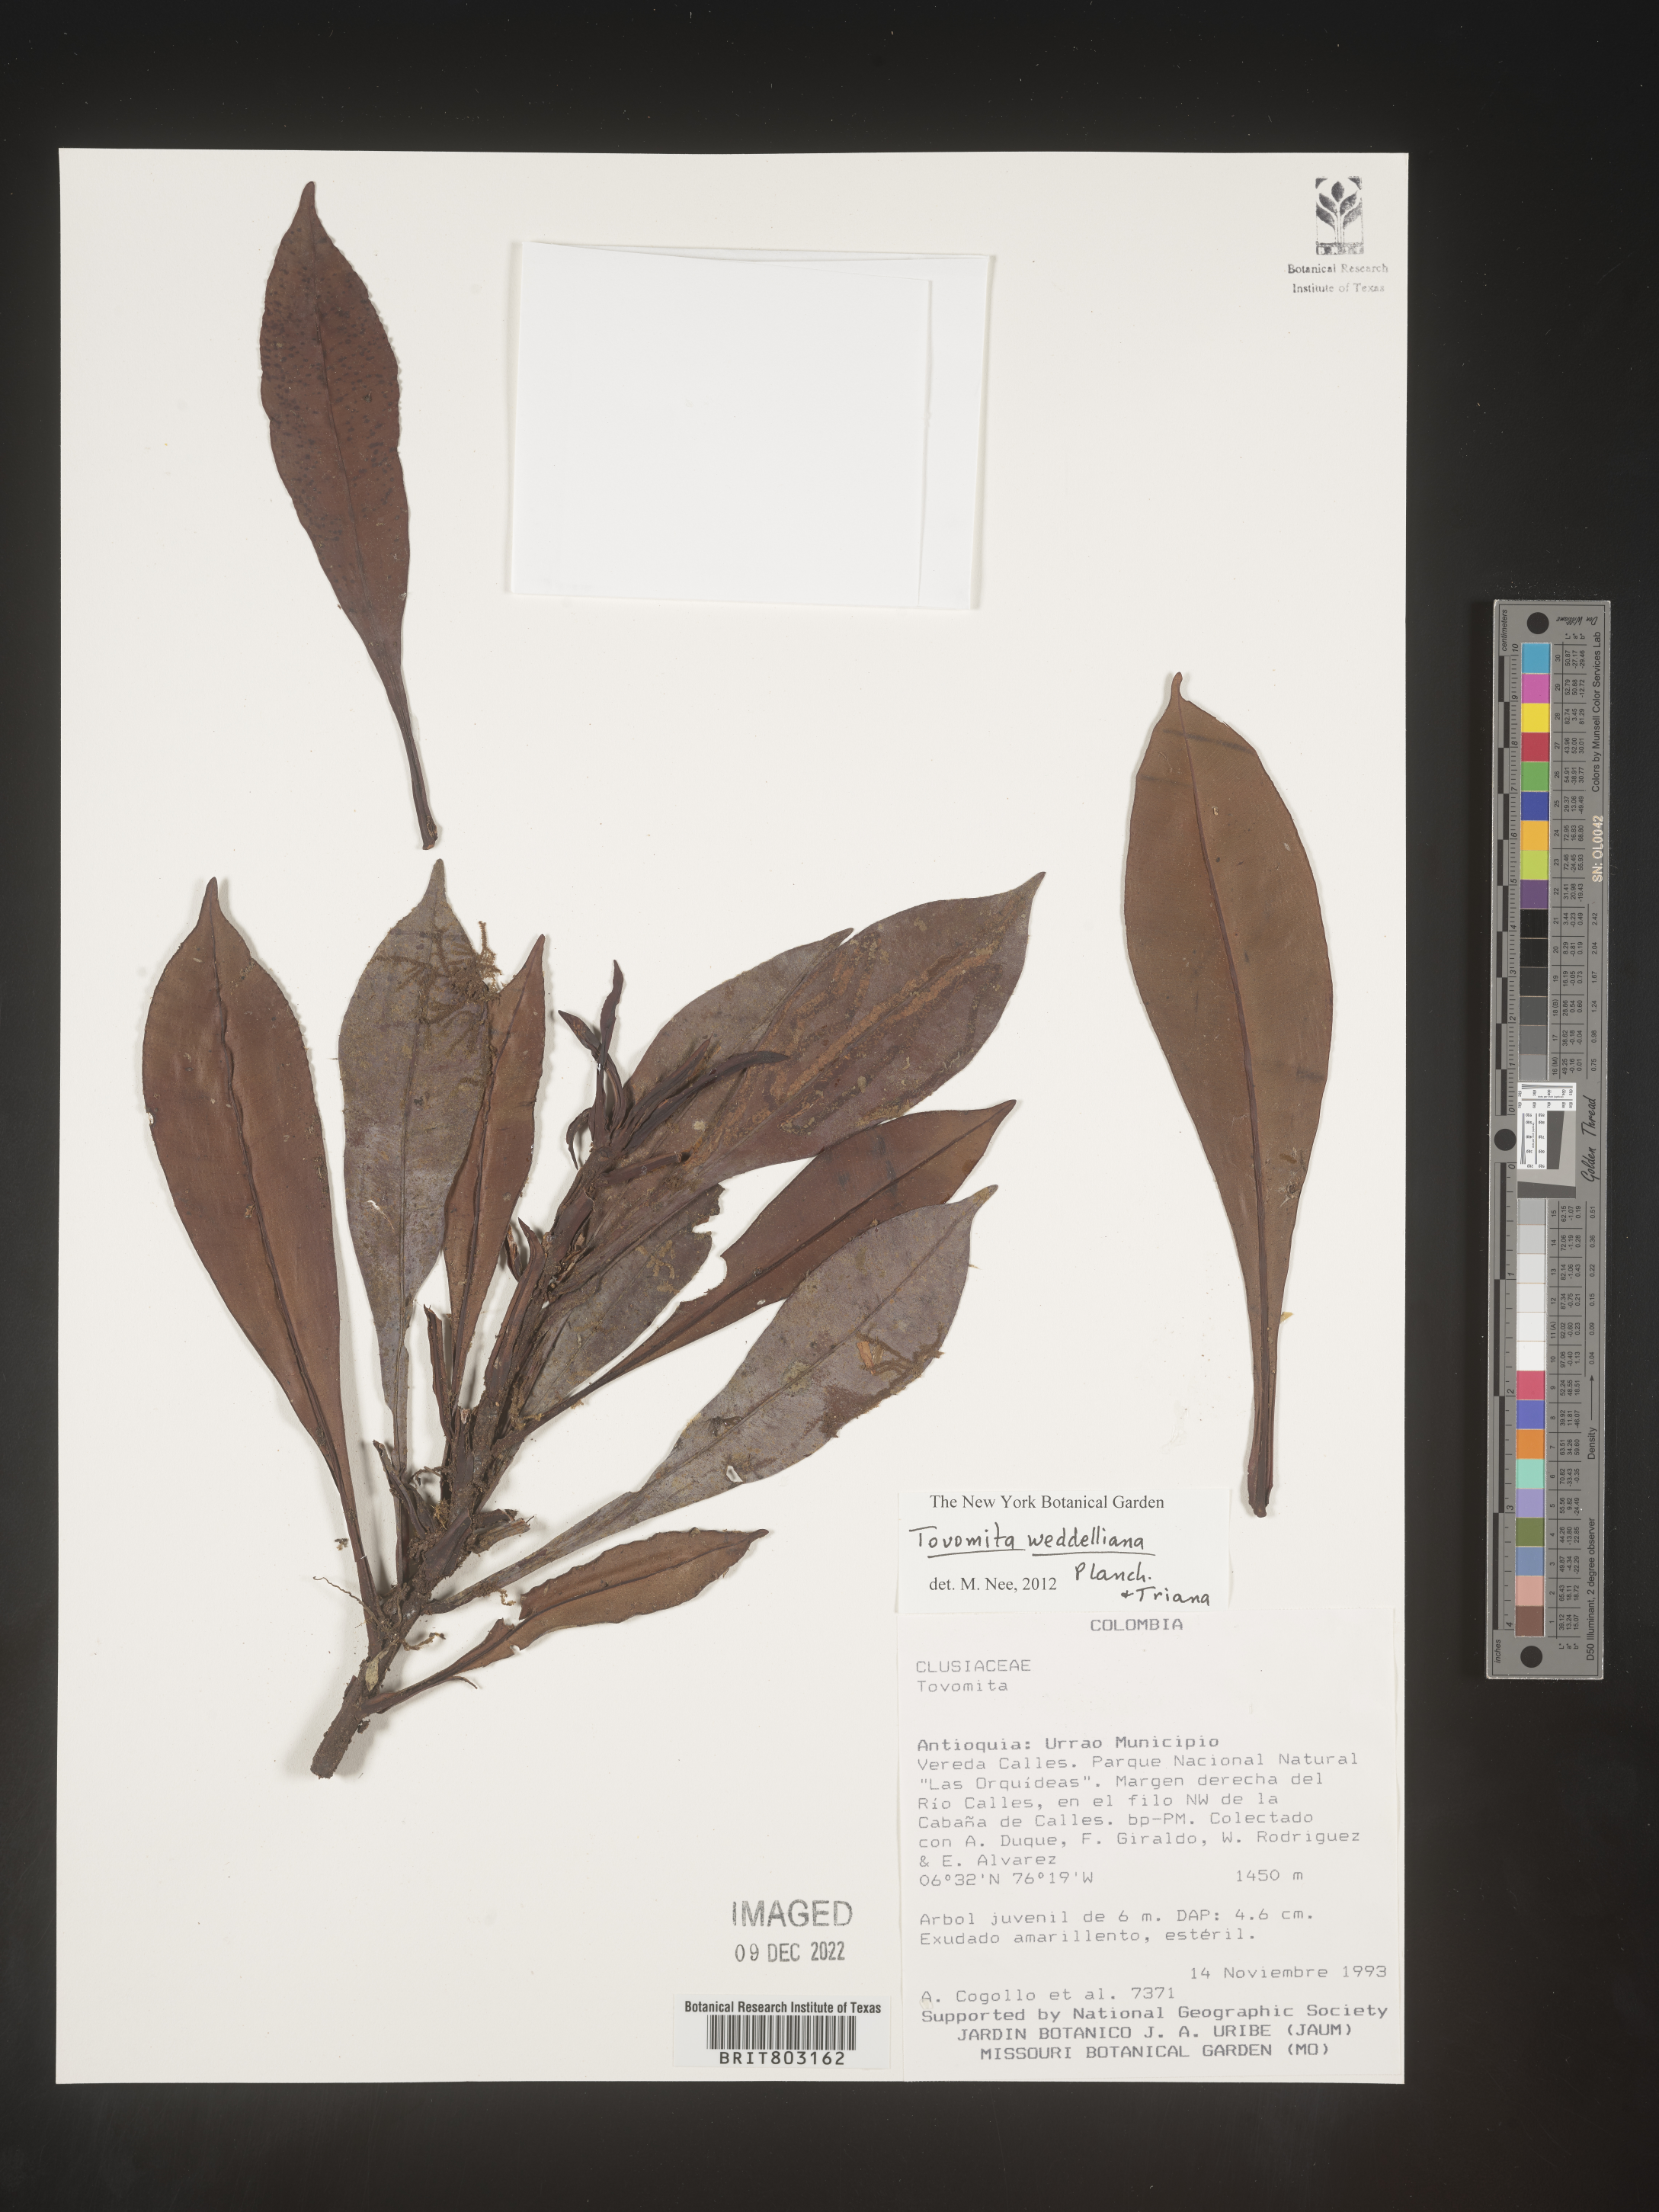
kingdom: Plantae
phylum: Tracheophyta
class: Magnoliopsida
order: Malpighiales
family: Clusiaceae
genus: Arawakia
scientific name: Arawakia weddelliana
